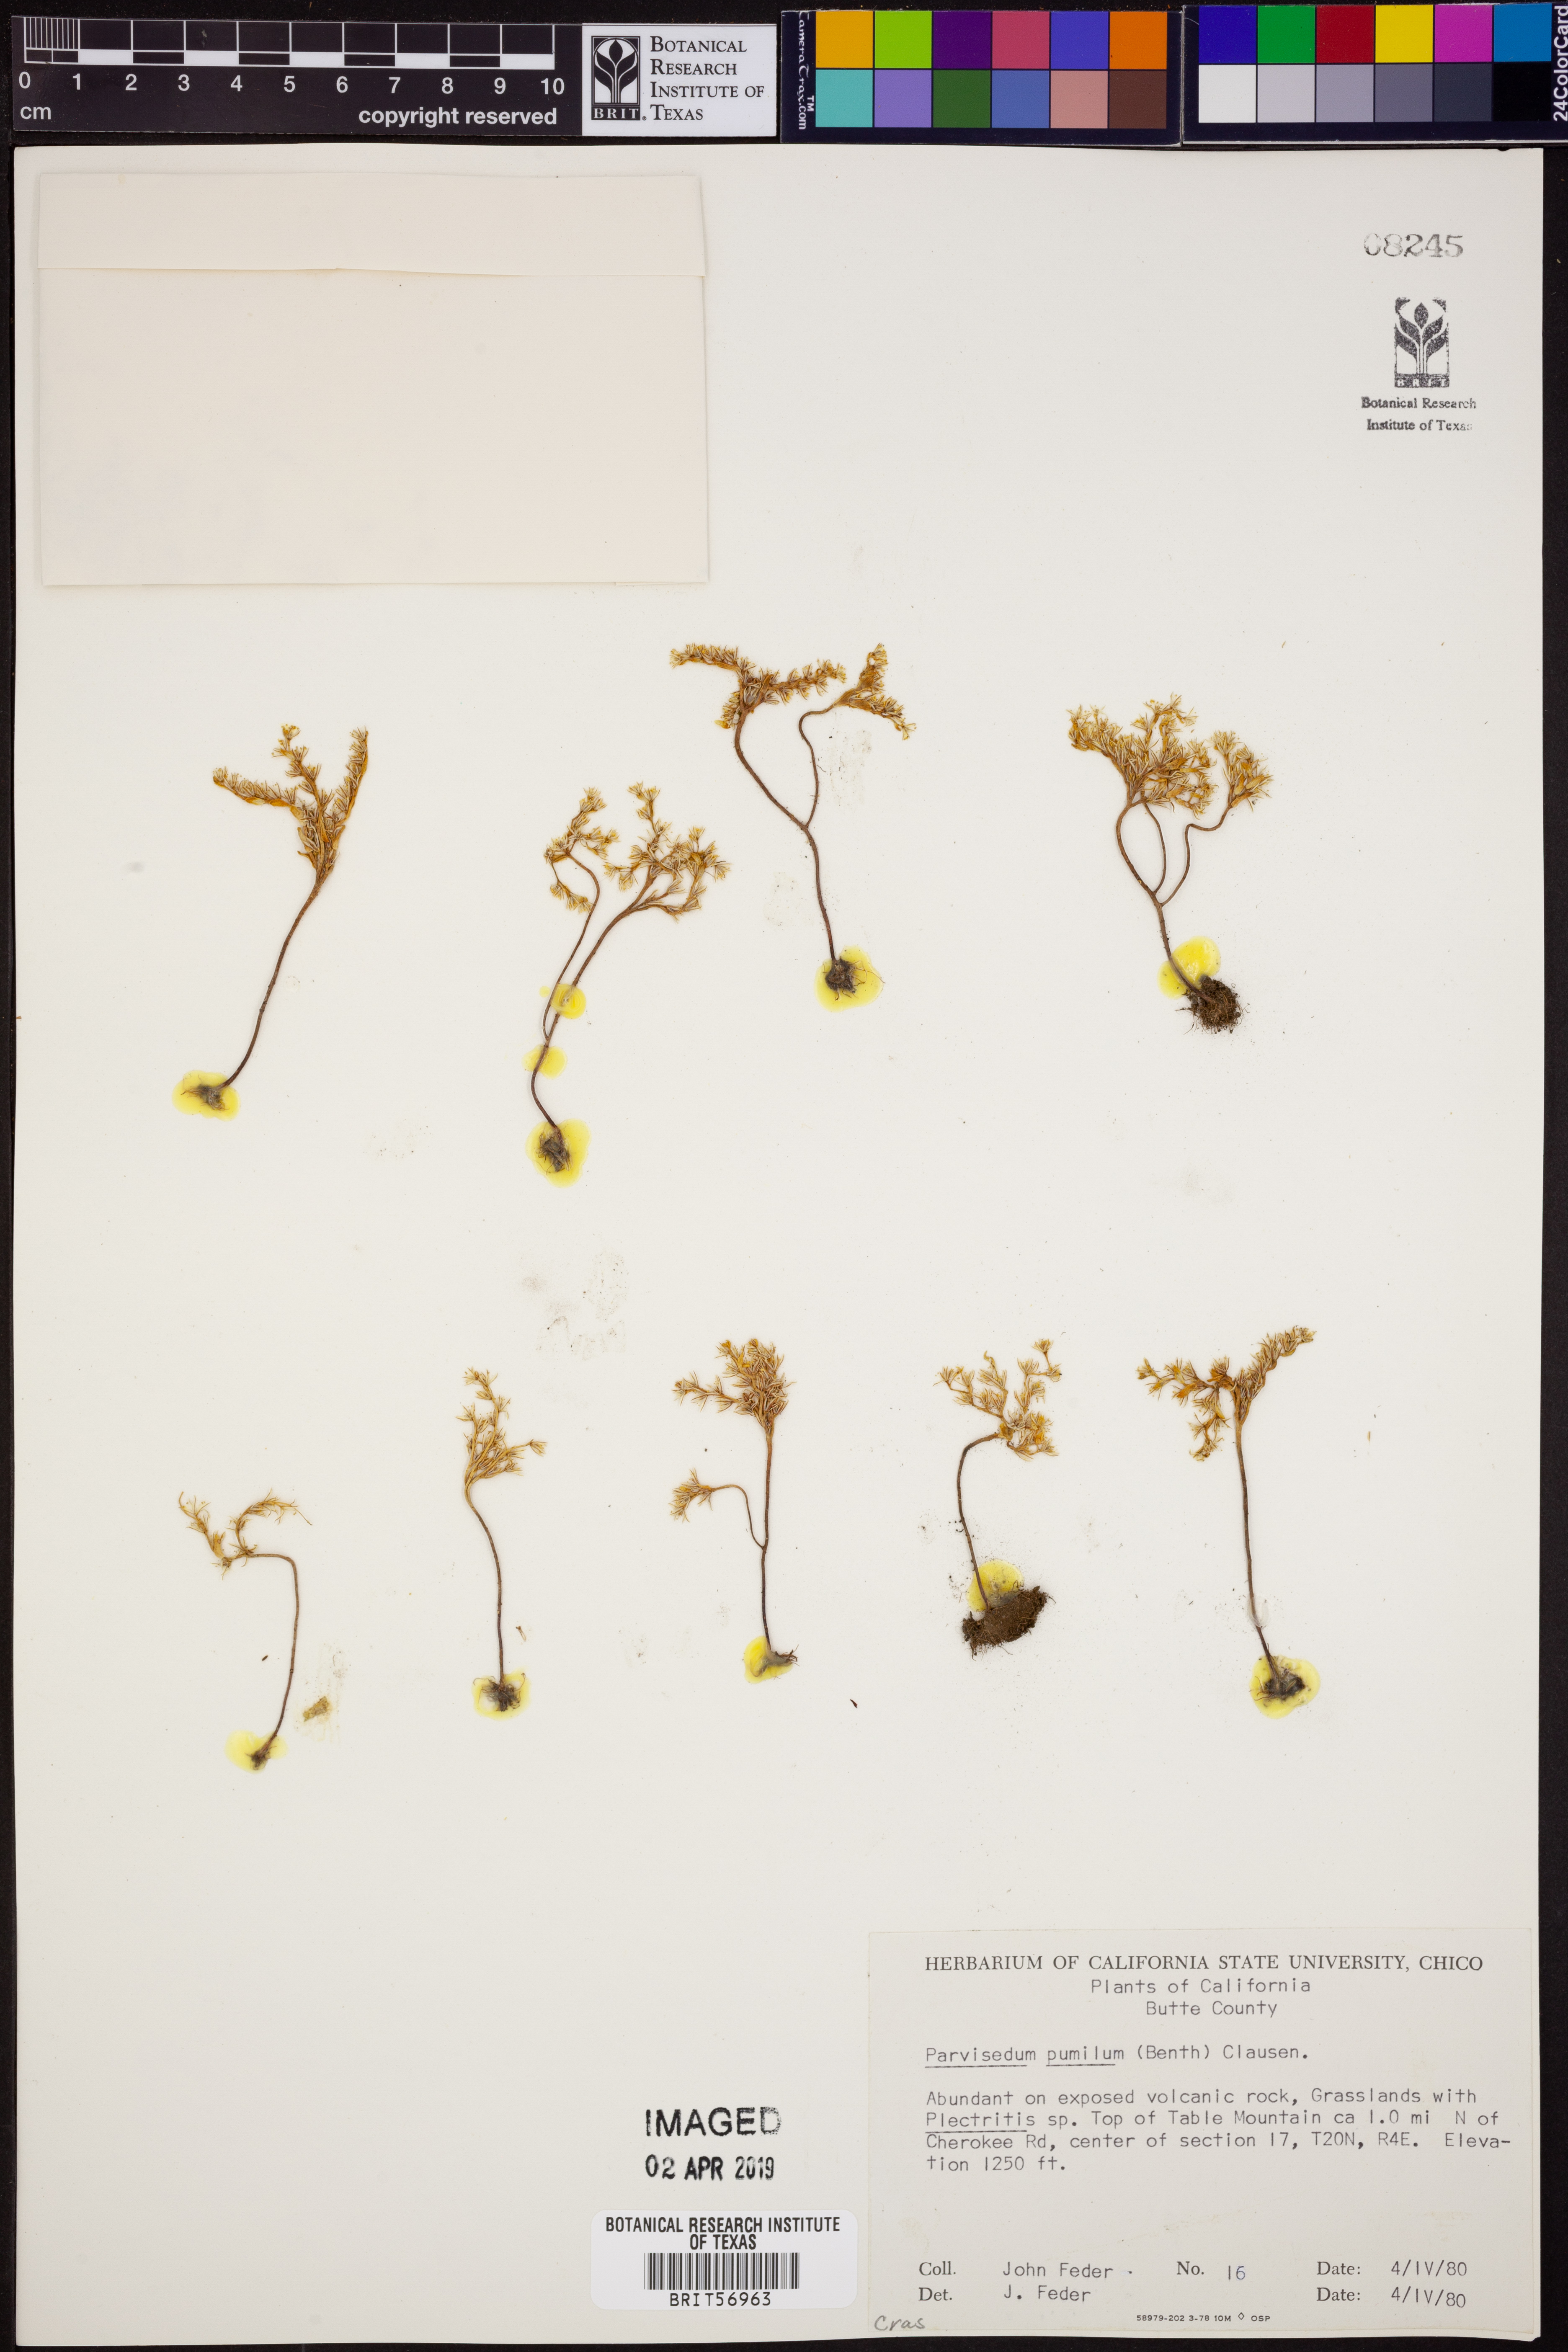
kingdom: Plantae
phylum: Tracheophyta
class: Magnoliopsida
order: Saxifragales
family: Crassulaceae
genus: Sedella
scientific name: Sedella pumila
